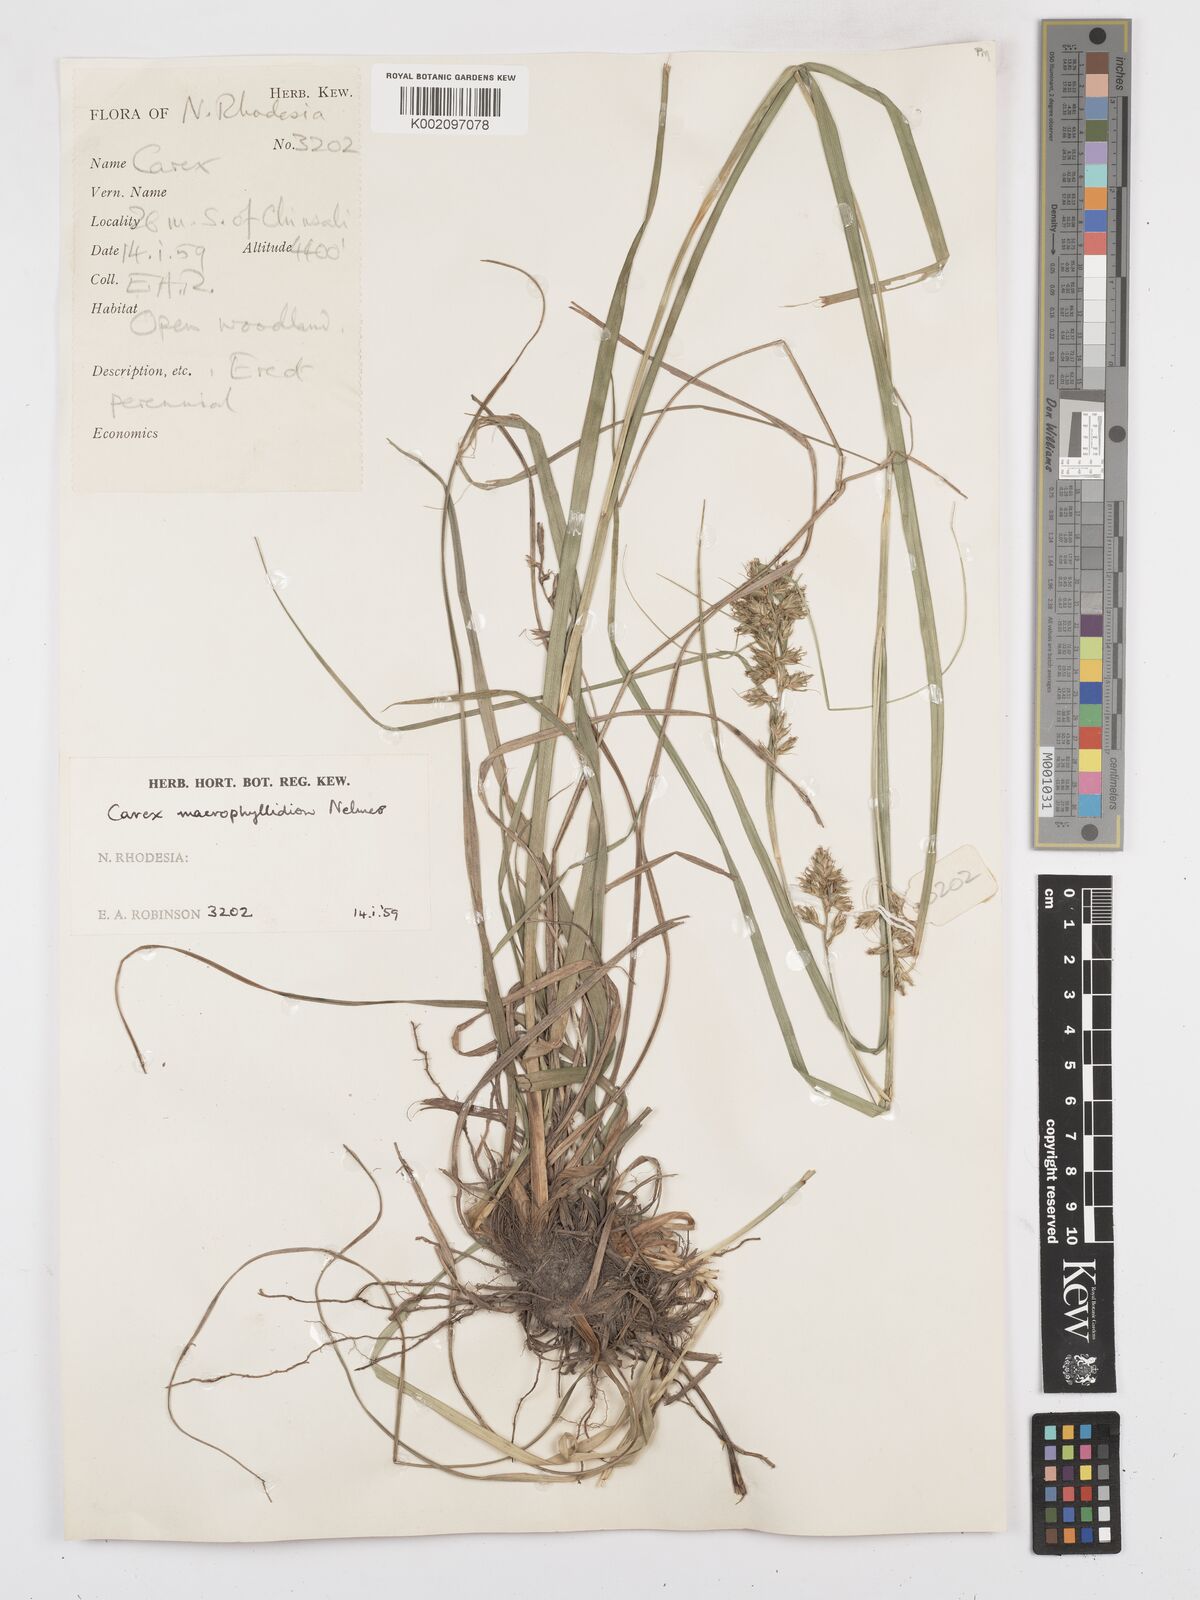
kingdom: Plantae
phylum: Tracheophyta
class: Liliopsida
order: Poales
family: Cyperaceae
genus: Carex
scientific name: Carex macrophyllidion
